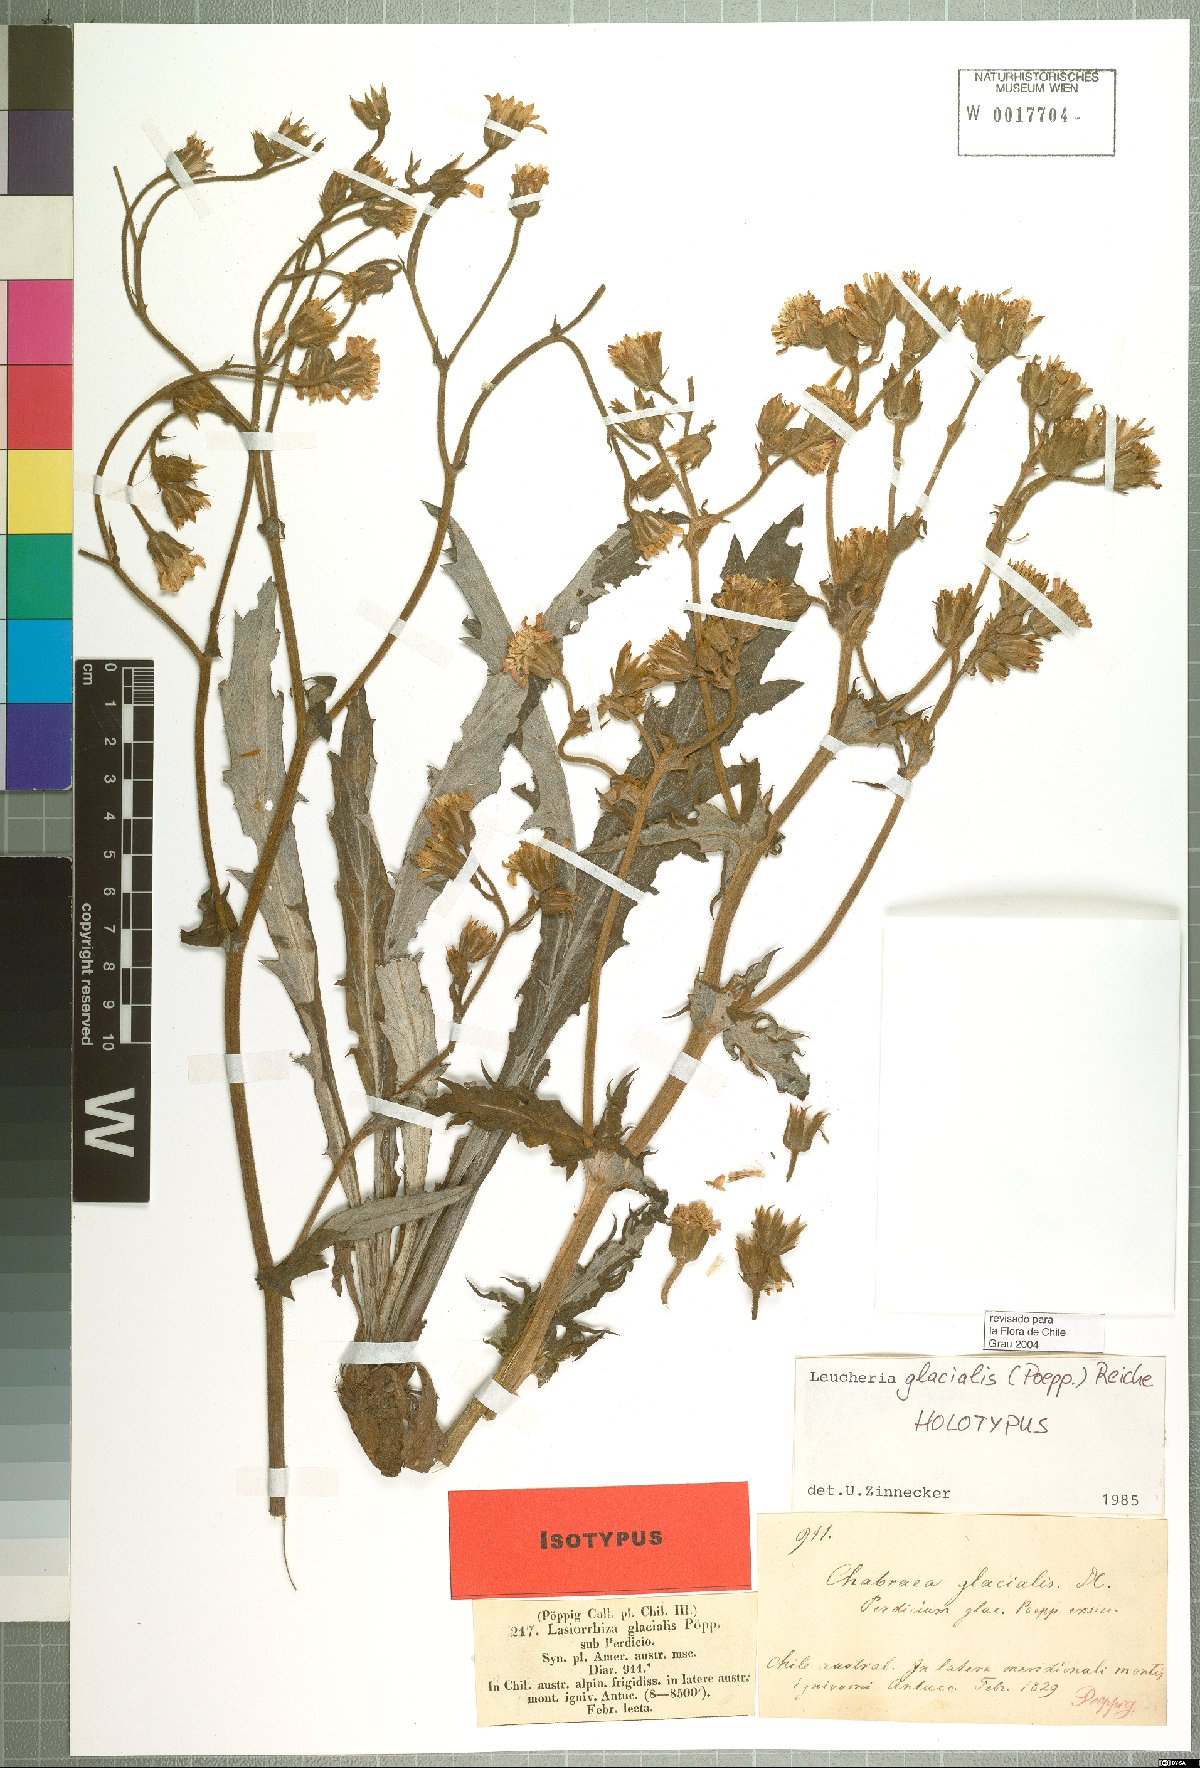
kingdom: Plantae
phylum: Tracheophyta
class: Magnoliopsida
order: Asterales
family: Asteraceae
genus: Leucheria
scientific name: Leucheria glacialis
